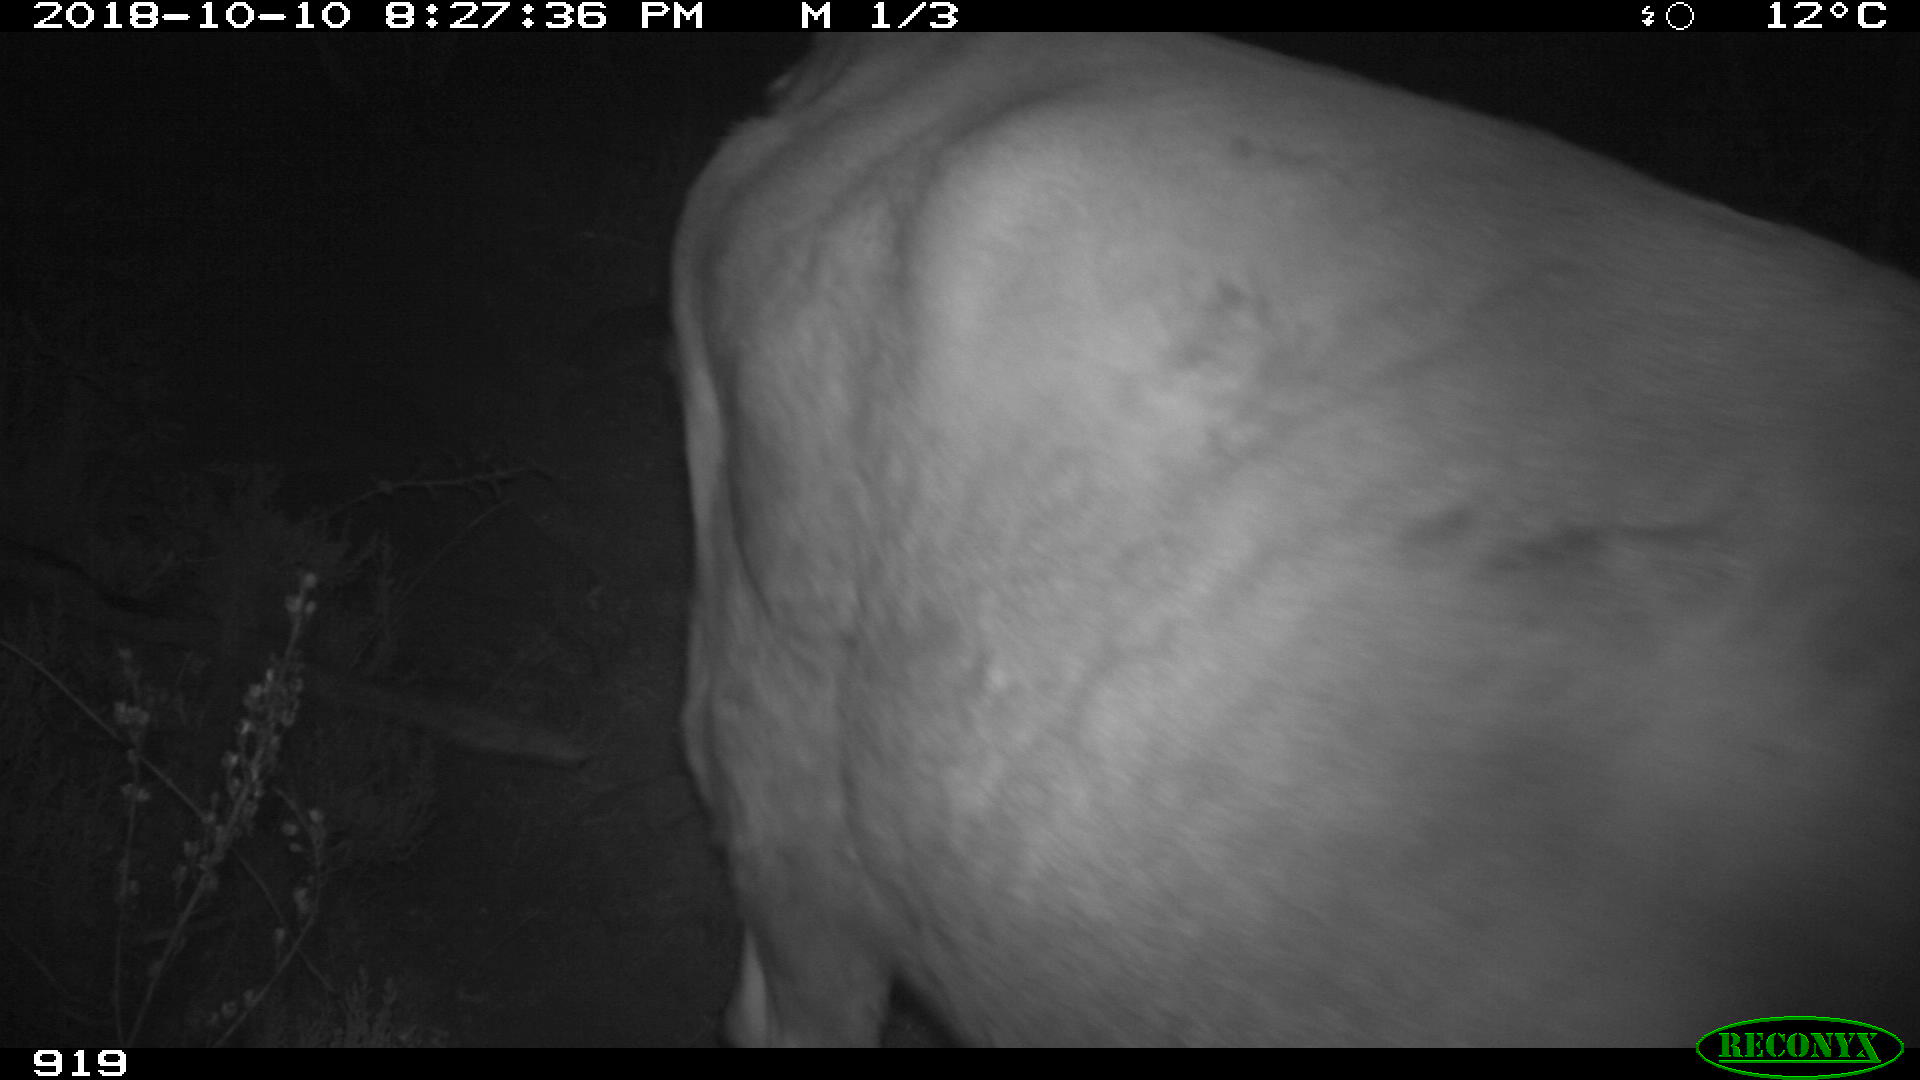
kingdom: Animalia
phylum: Chordata
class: Mammalia
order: Artiodactyla
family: Bovidae
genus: Bos
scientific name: Bos taurus
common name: Domesticated cattle
